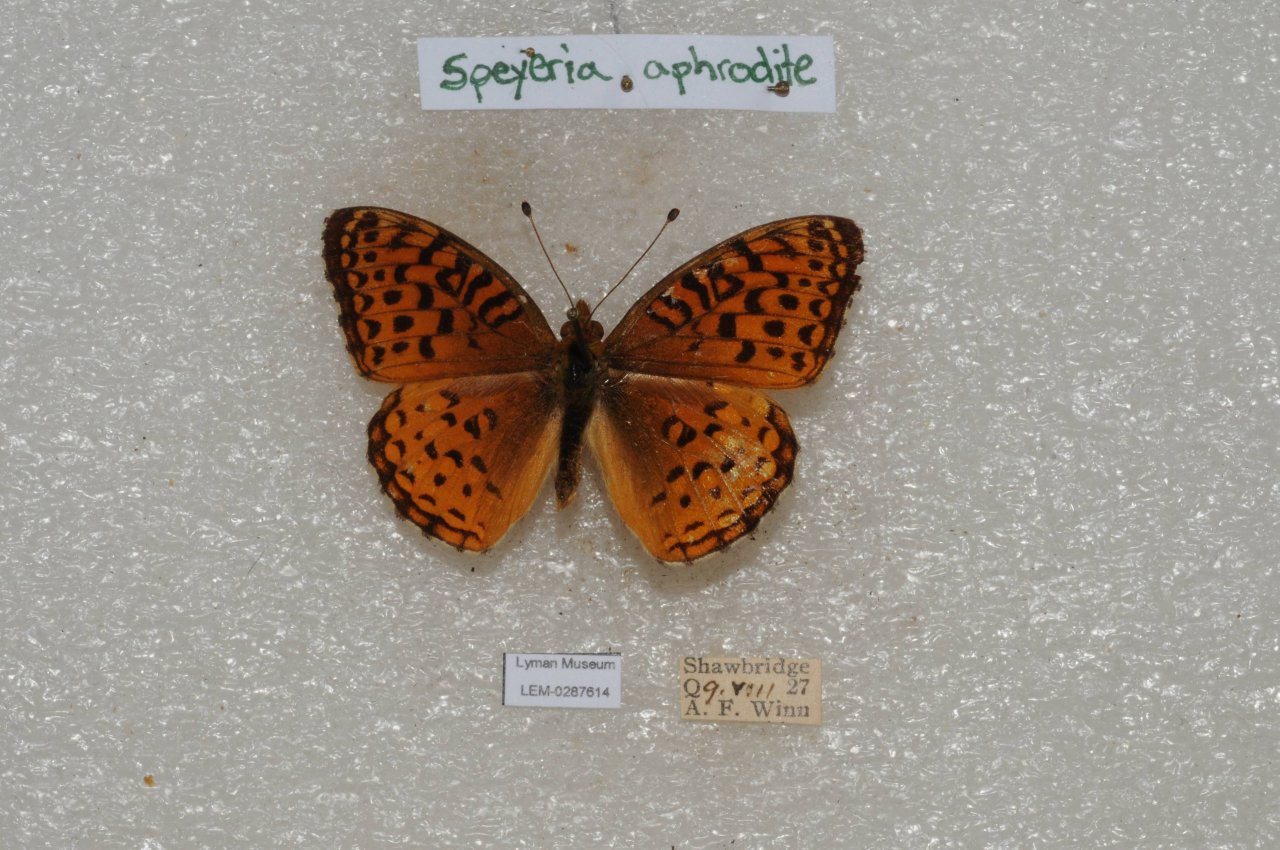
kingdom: Animalia
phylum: Arthropoda
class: Insecta
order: Lepidoptera
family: Nymphalidae
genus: Speyeria
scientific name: Speyeria aphrodite
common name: Aphrodite Fritillary
